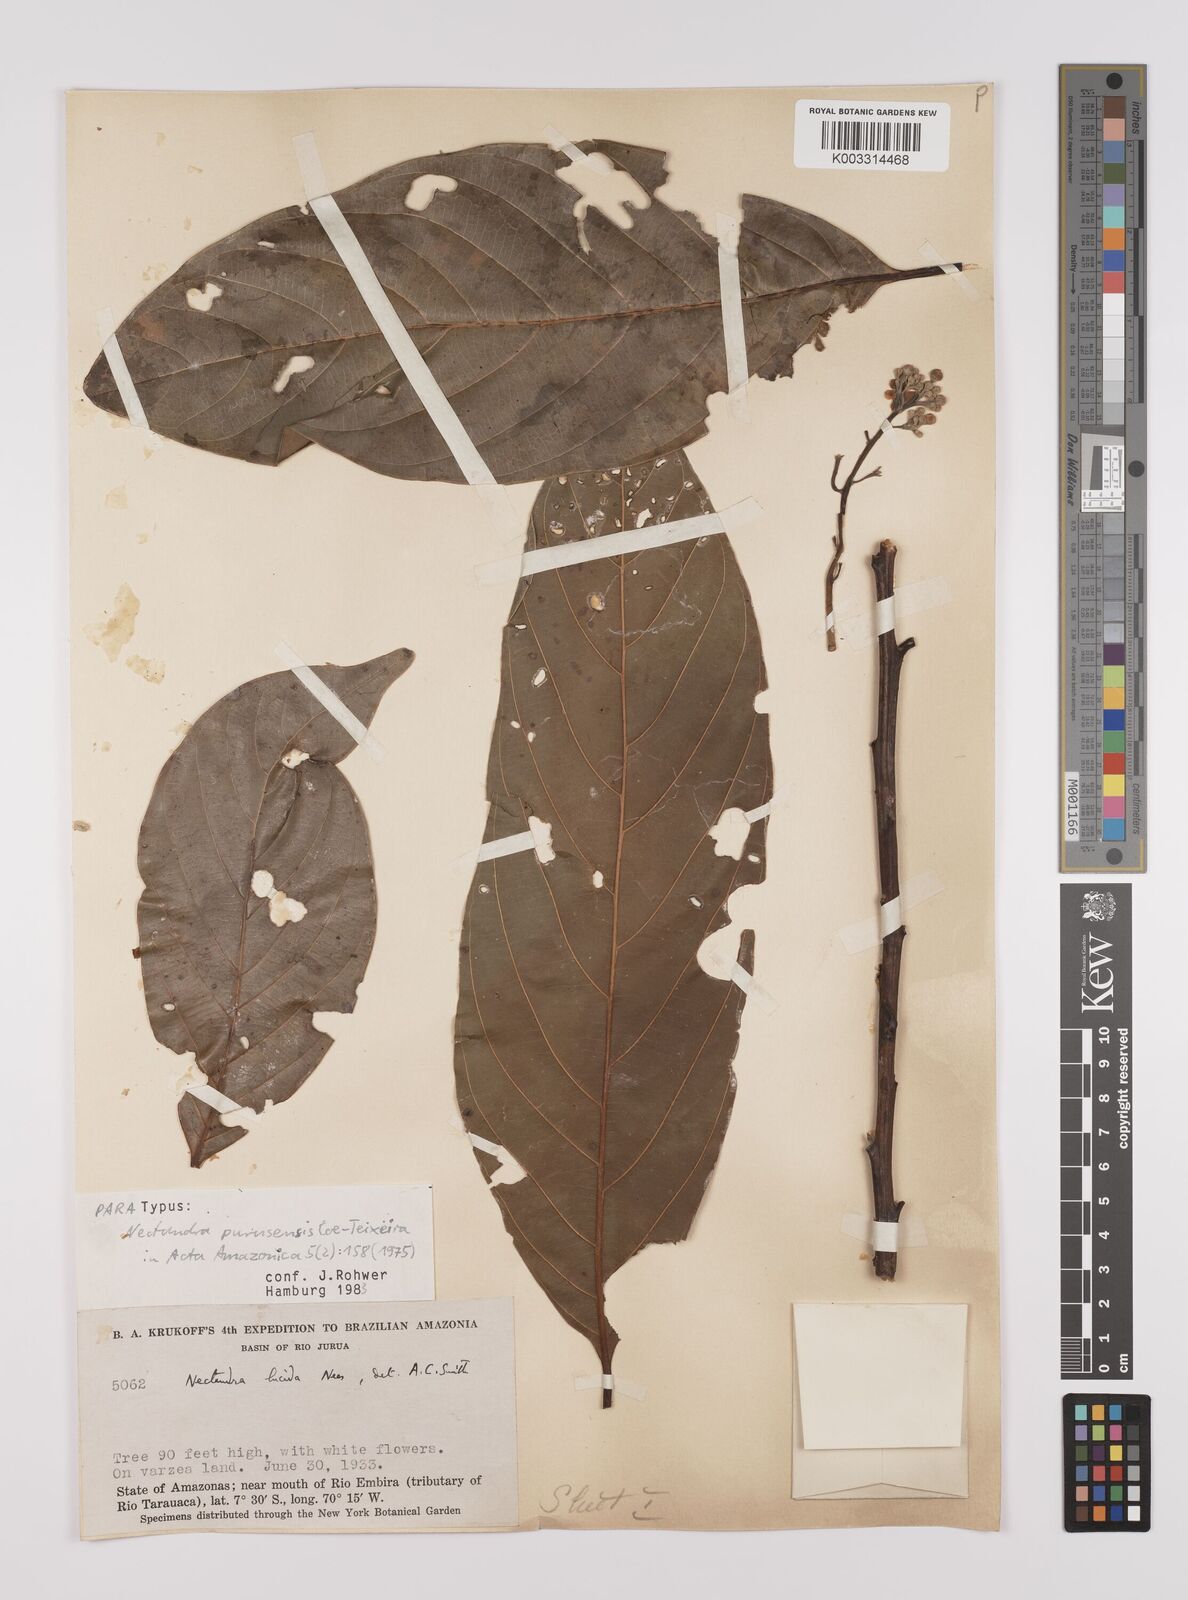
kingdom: Plantae
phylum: Tracheophyta
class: Magnoliopsida
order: Laurales
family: Lauraceae
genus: Endlicheria
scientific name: Endlicheria paniculata
